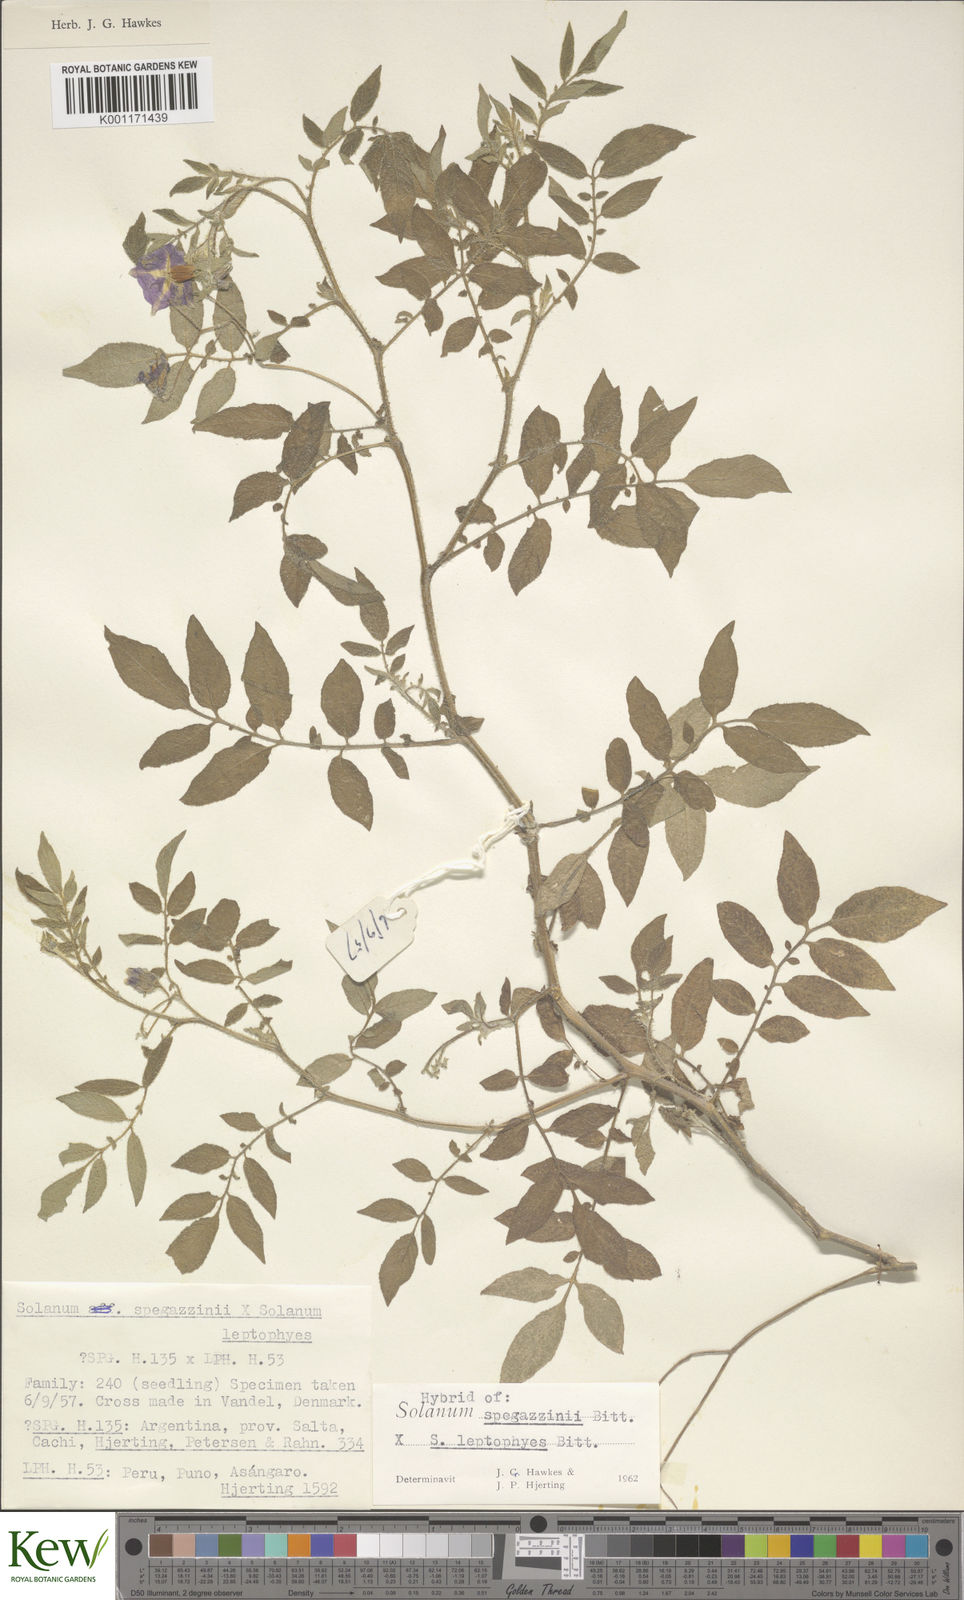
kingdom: Plantae
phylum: Tracheophyta
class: Magnoliopsida
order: Solanales
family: Solanaceae
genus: Solanum
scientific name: Solanum brevicaule
